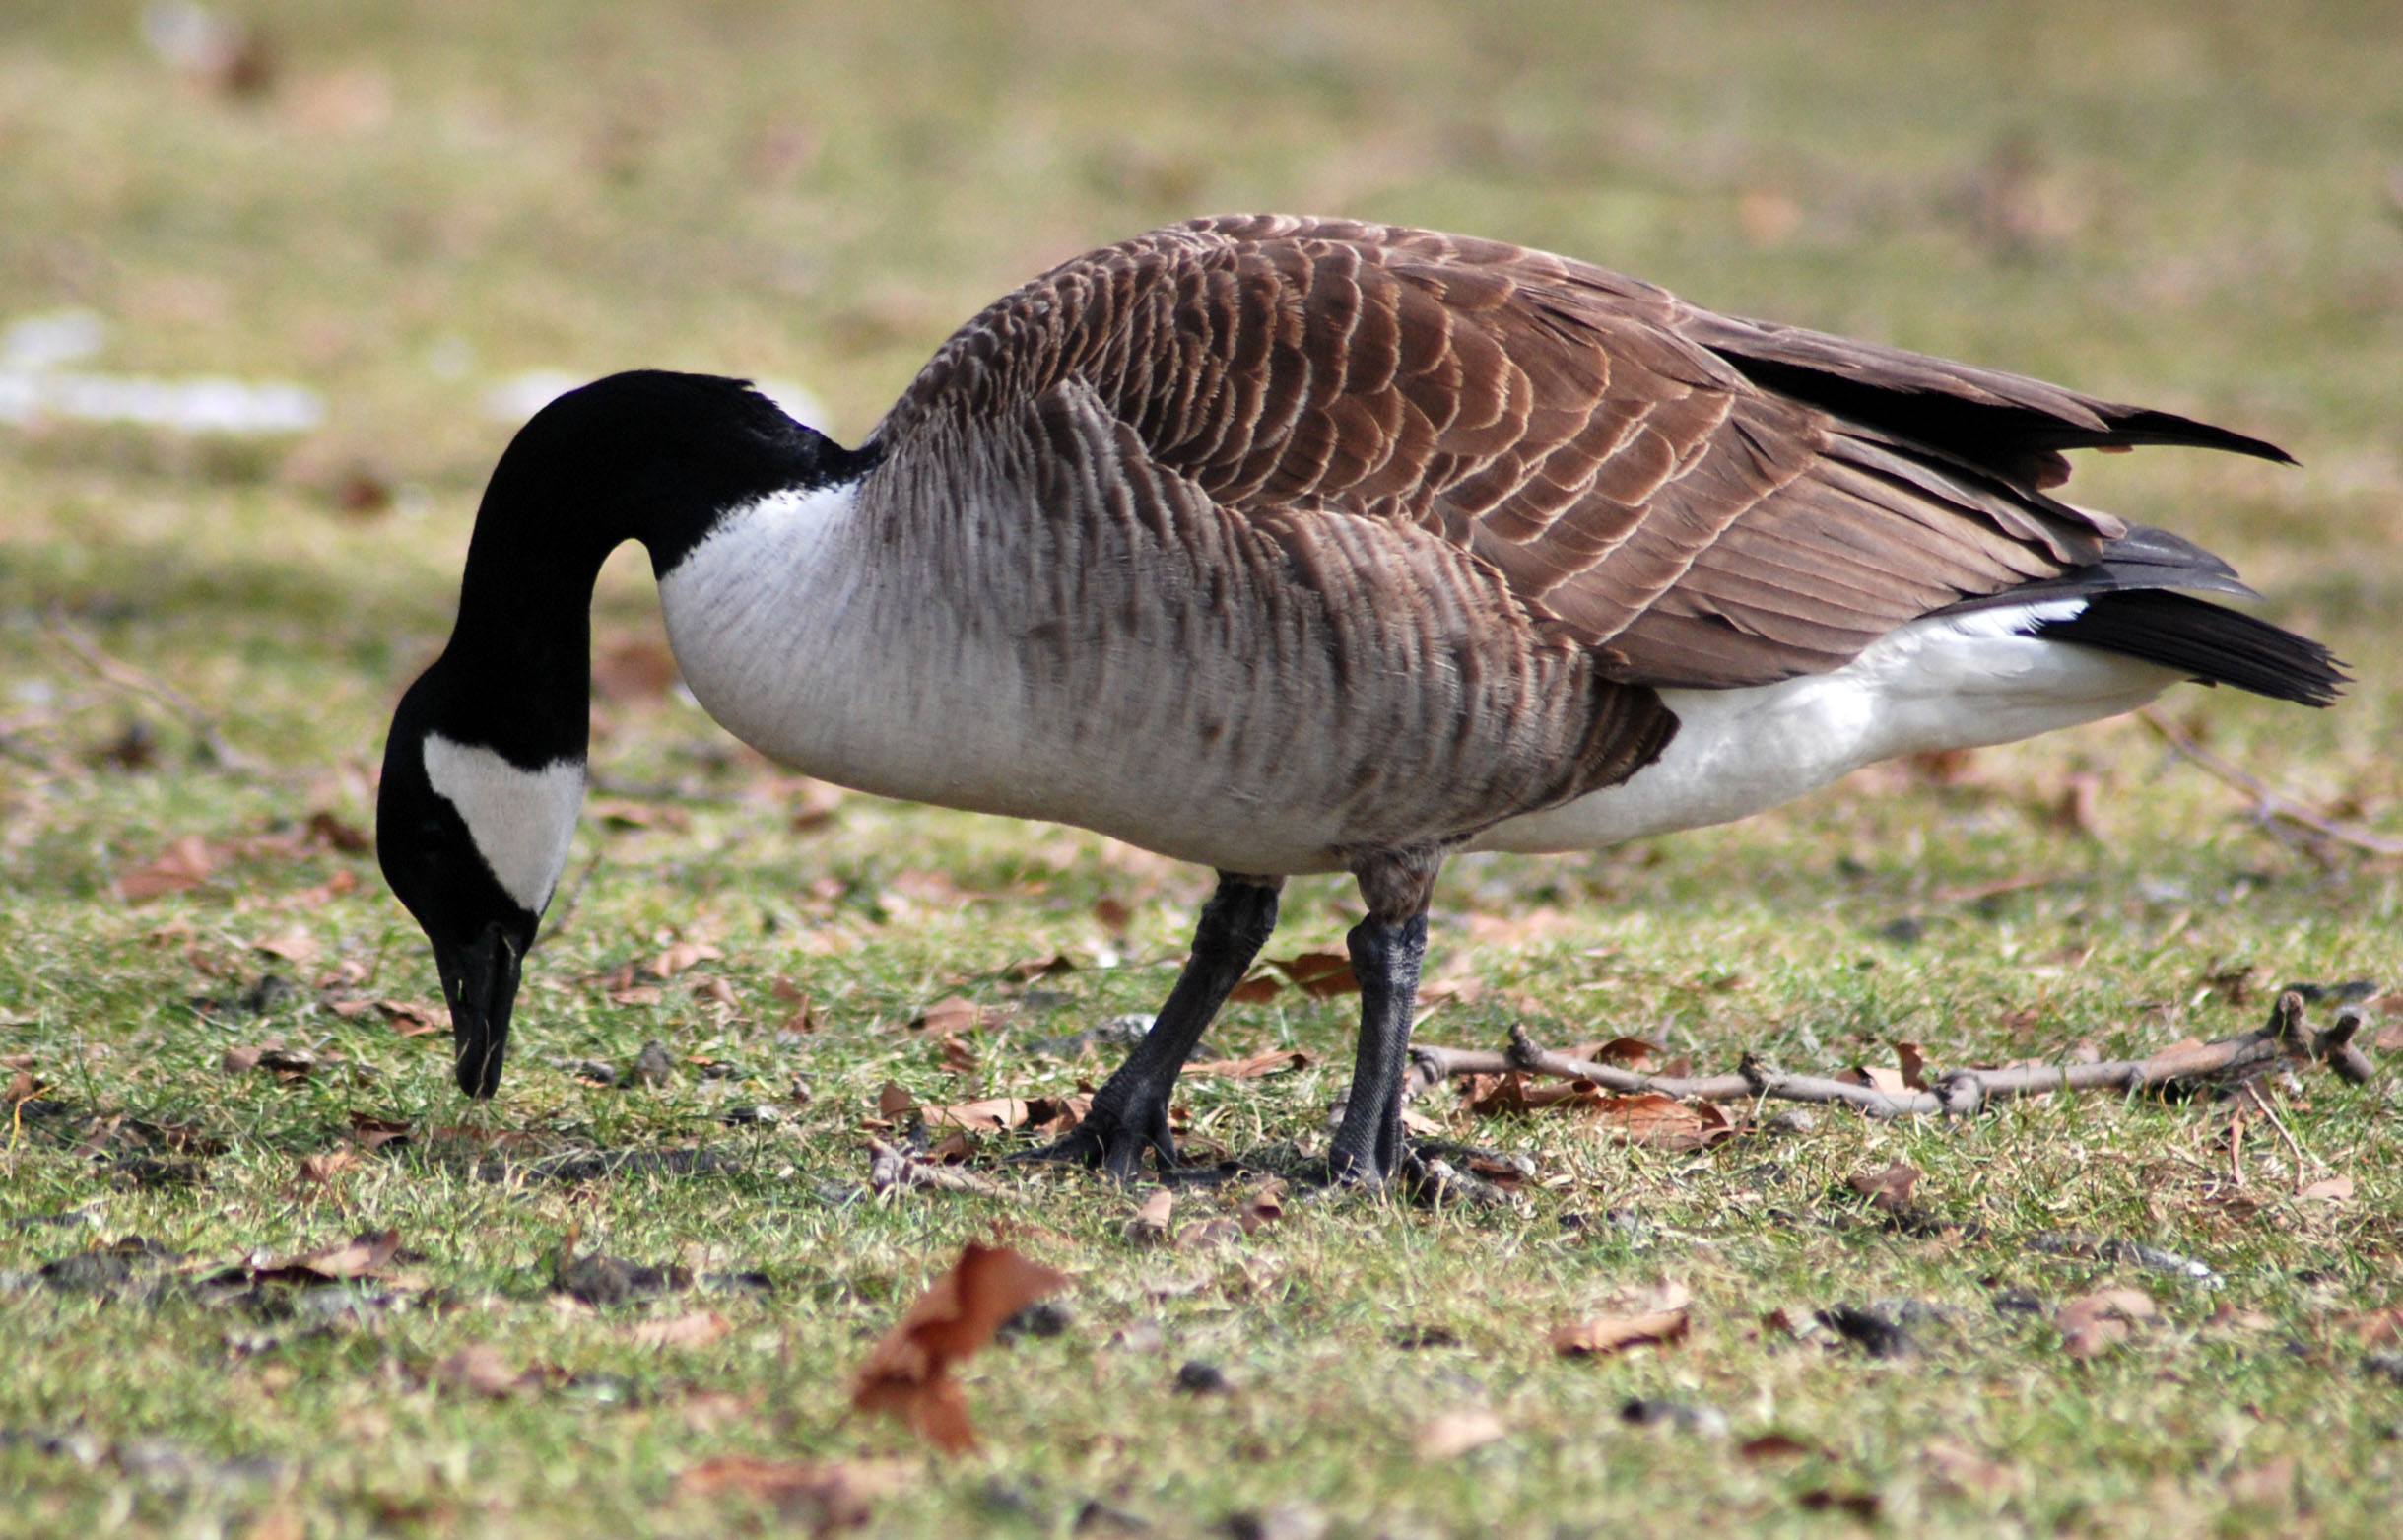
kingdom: Animalia
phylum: Chordata
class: Aves
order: Anseriformes
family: Anatidae
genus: Branta
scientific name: Branta canadensis
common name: Canada goose
